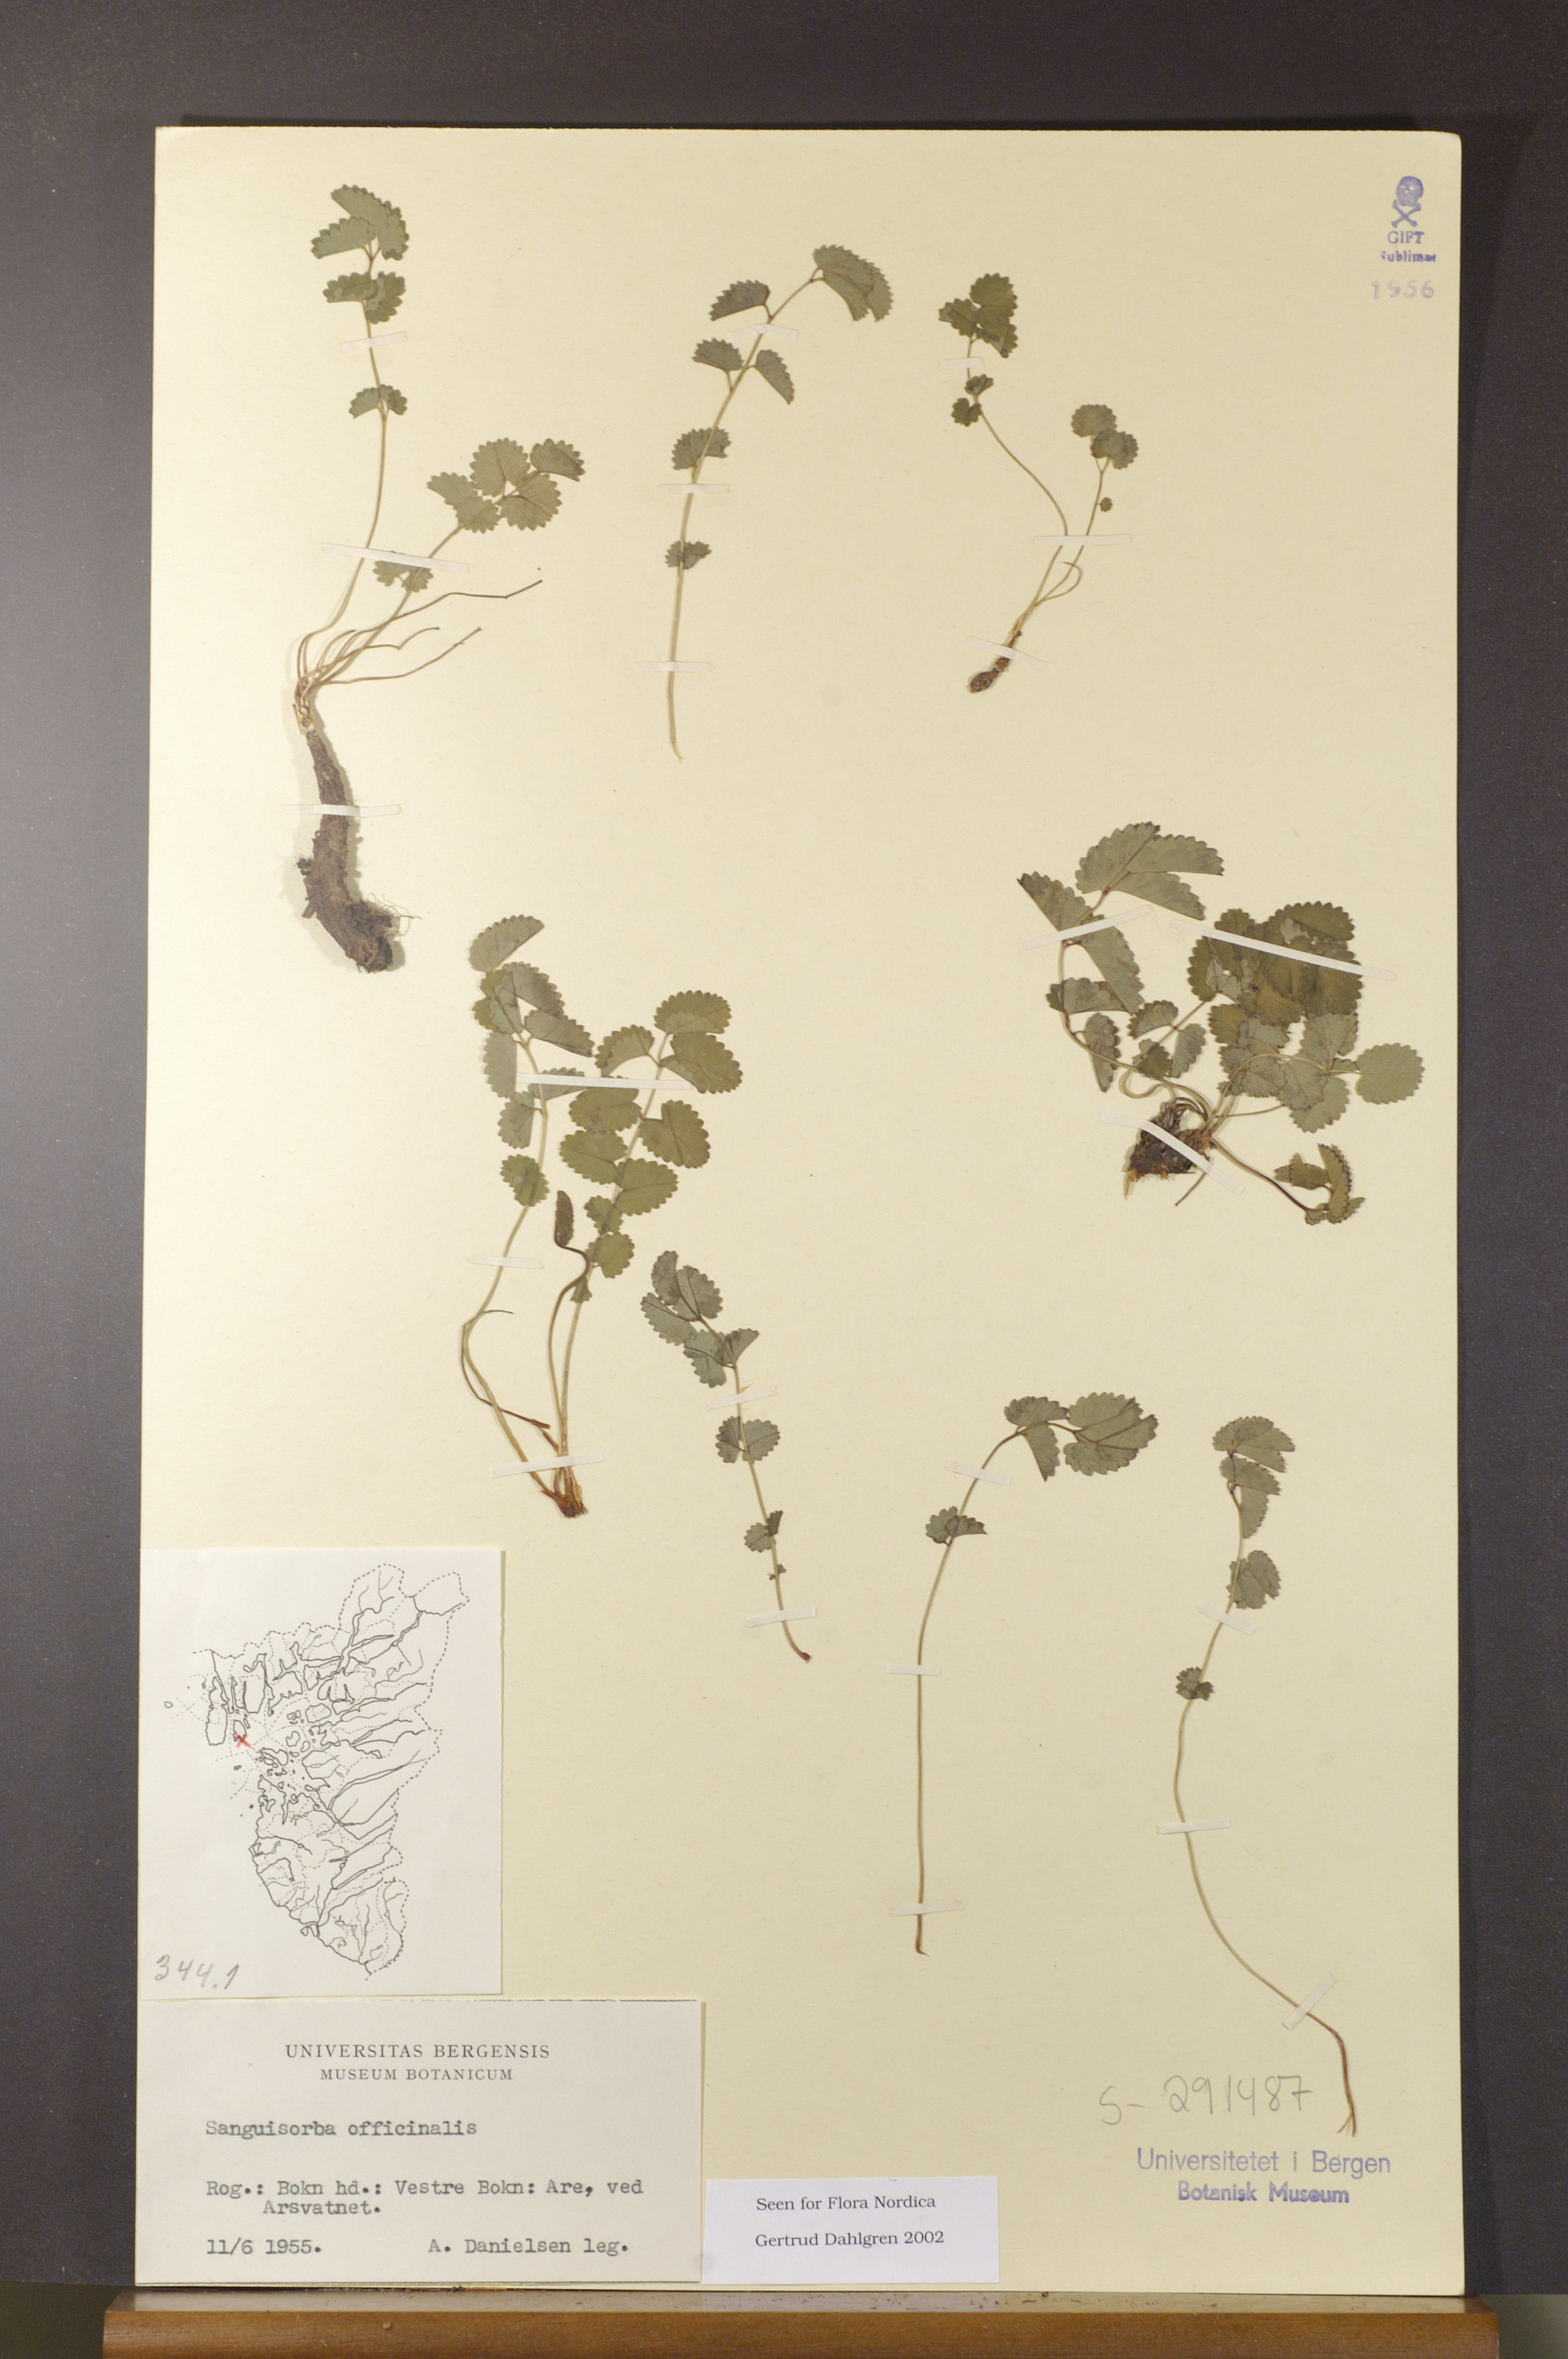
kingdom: Plantae
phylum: Tracheophyta
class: Magnoliopsida
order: Rosales
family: Rosaceae
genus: Sanguisorba
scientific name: Sanguisorba officinalis
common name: Great burnet
